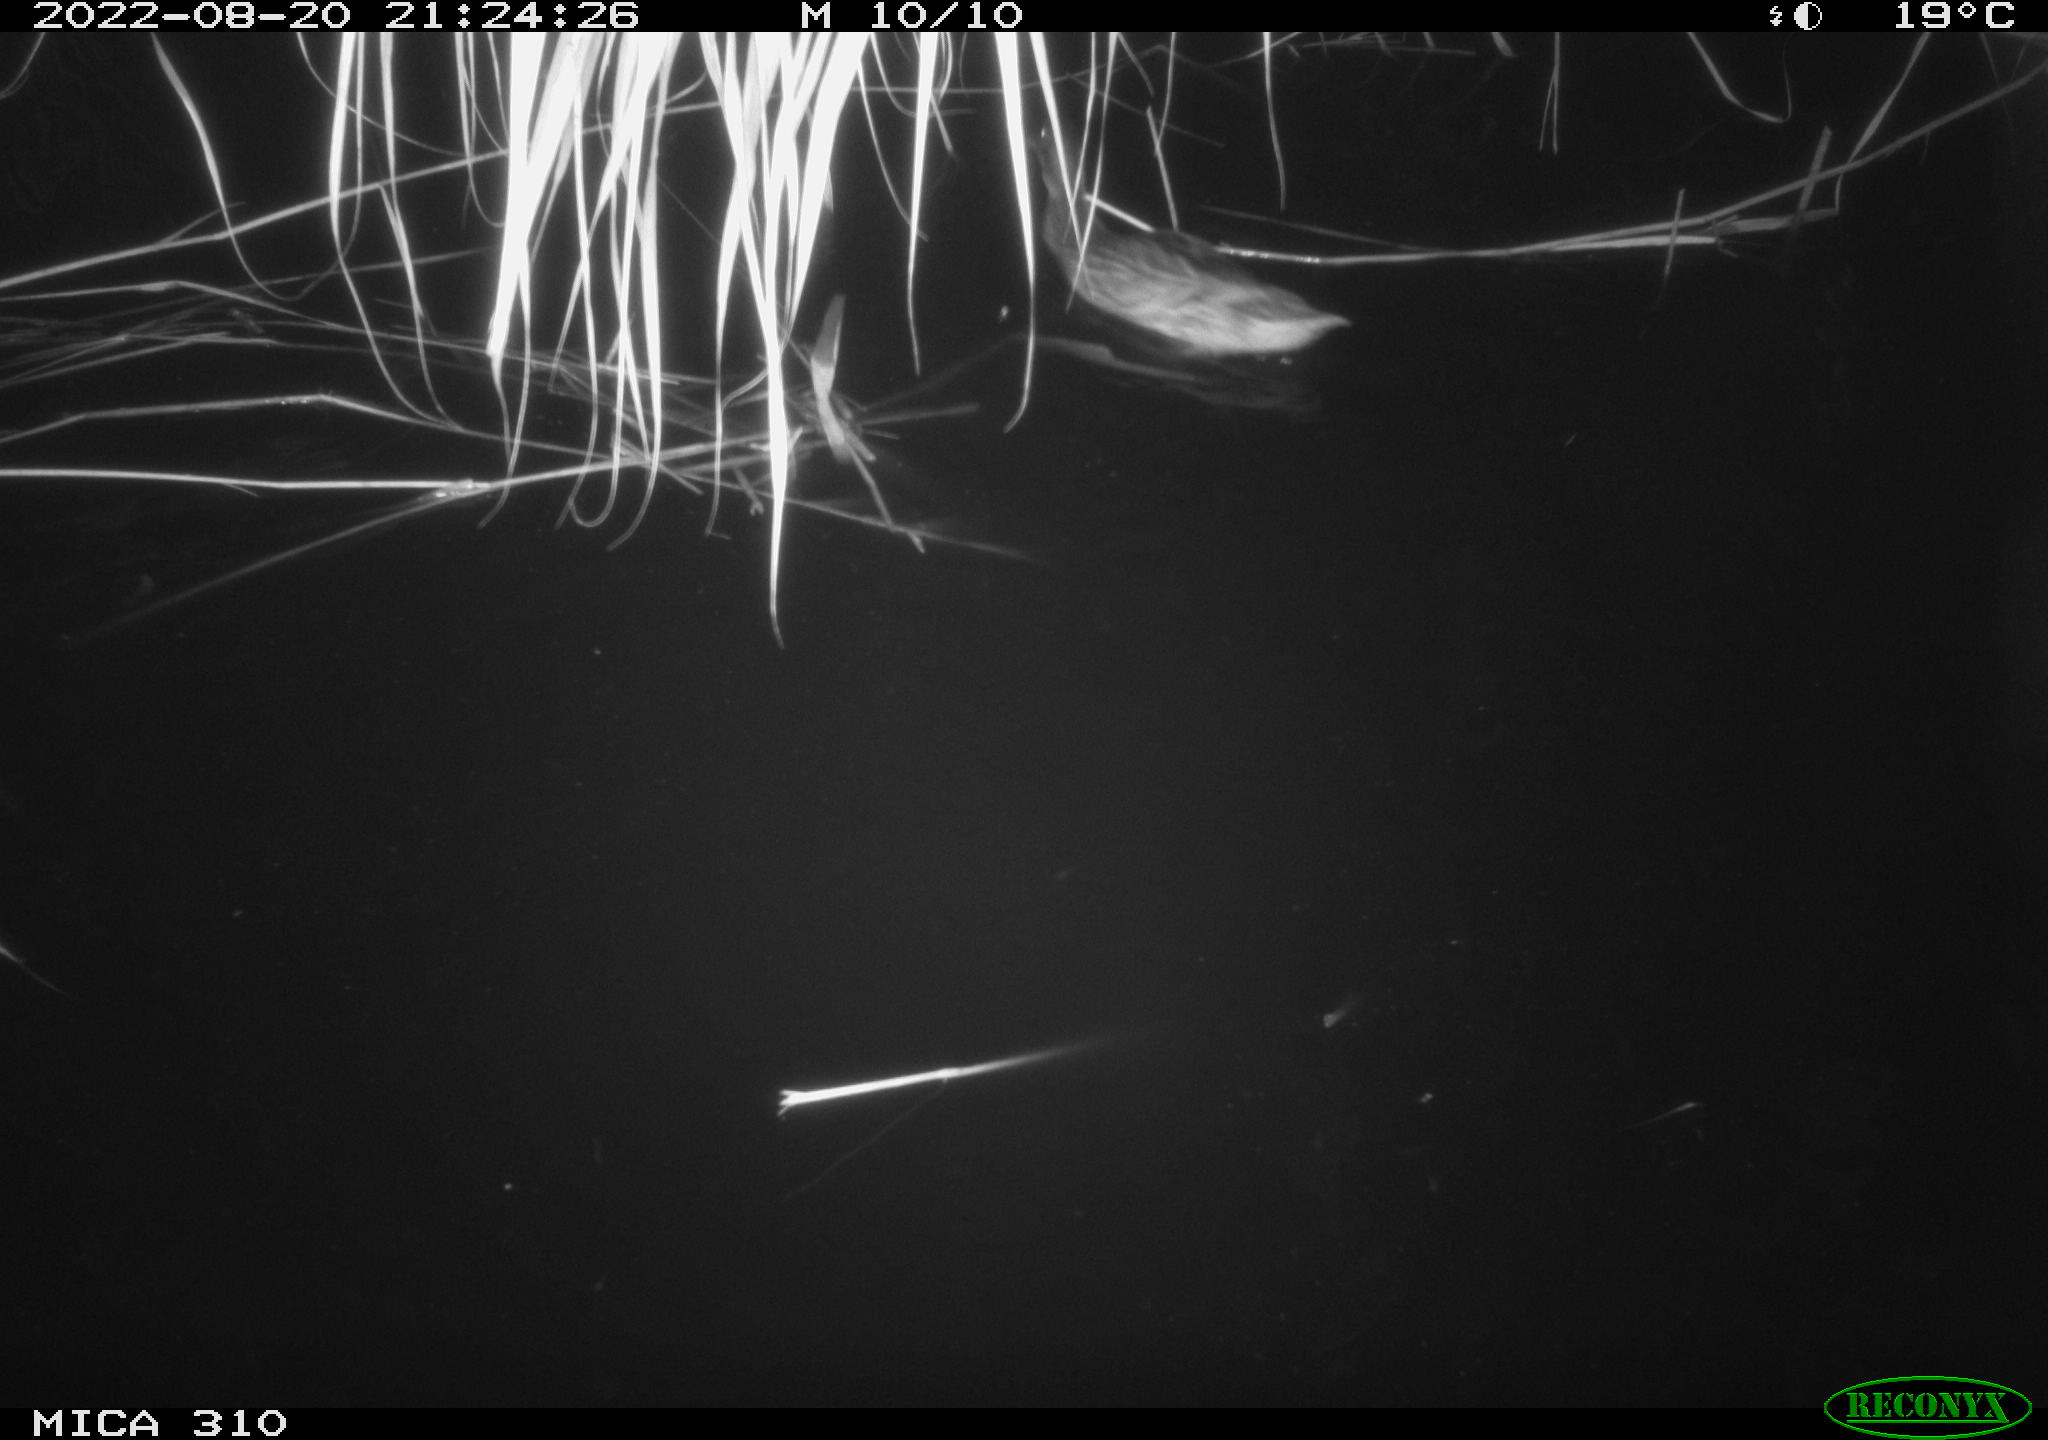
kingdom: Animalia
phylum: Chordata
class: Aves
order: Pelecaniformes
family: Ardeidae
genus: Ardea
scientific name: Ardea
